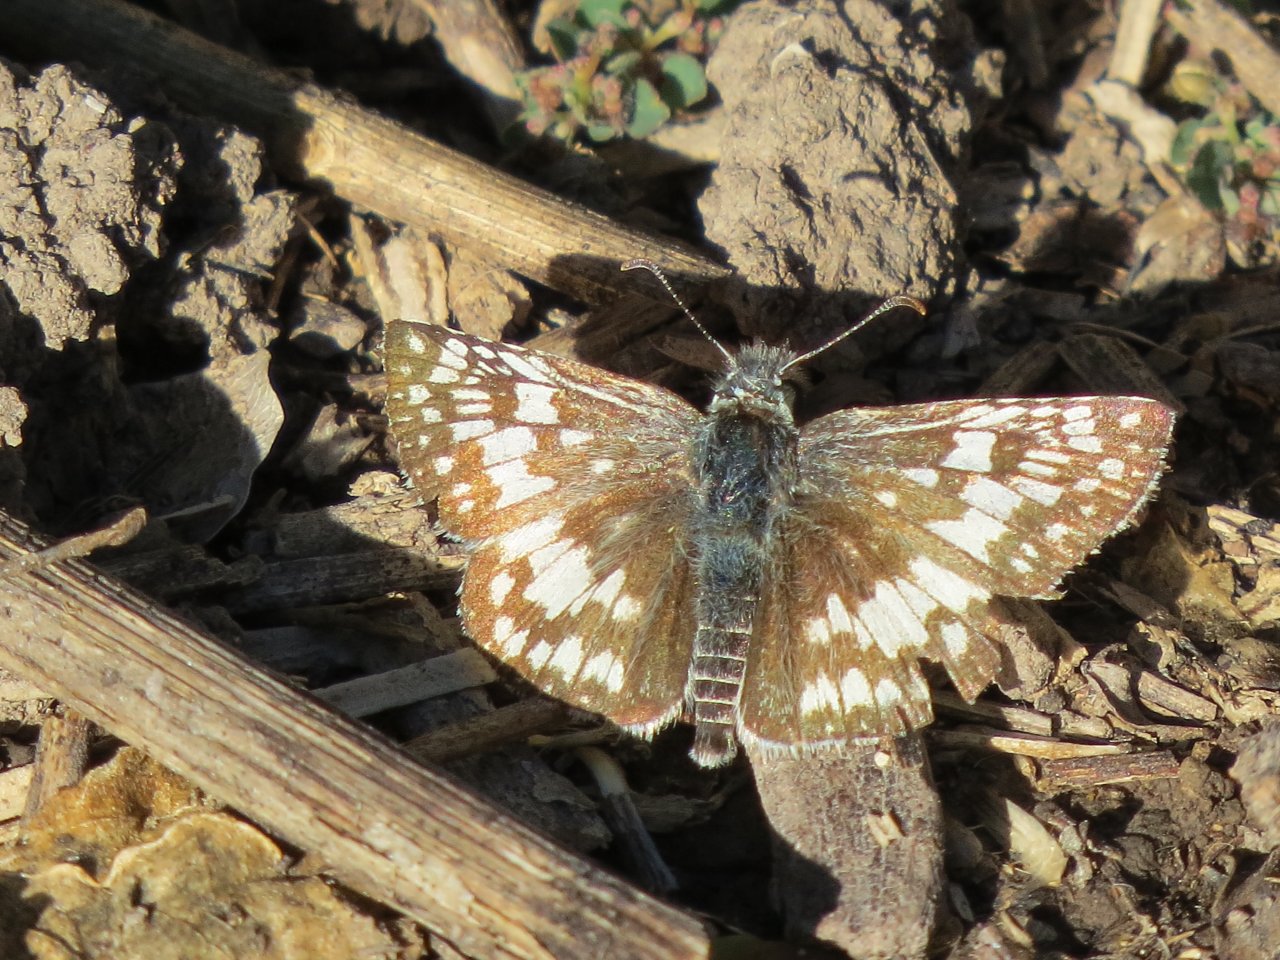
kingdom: Animalia
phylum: Arthropoda
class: Insecta
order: Lepidoptera
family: Hesperiidae
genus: Pyrgus
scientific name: Pyrgus communis
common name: Common Checkered-Skipper
